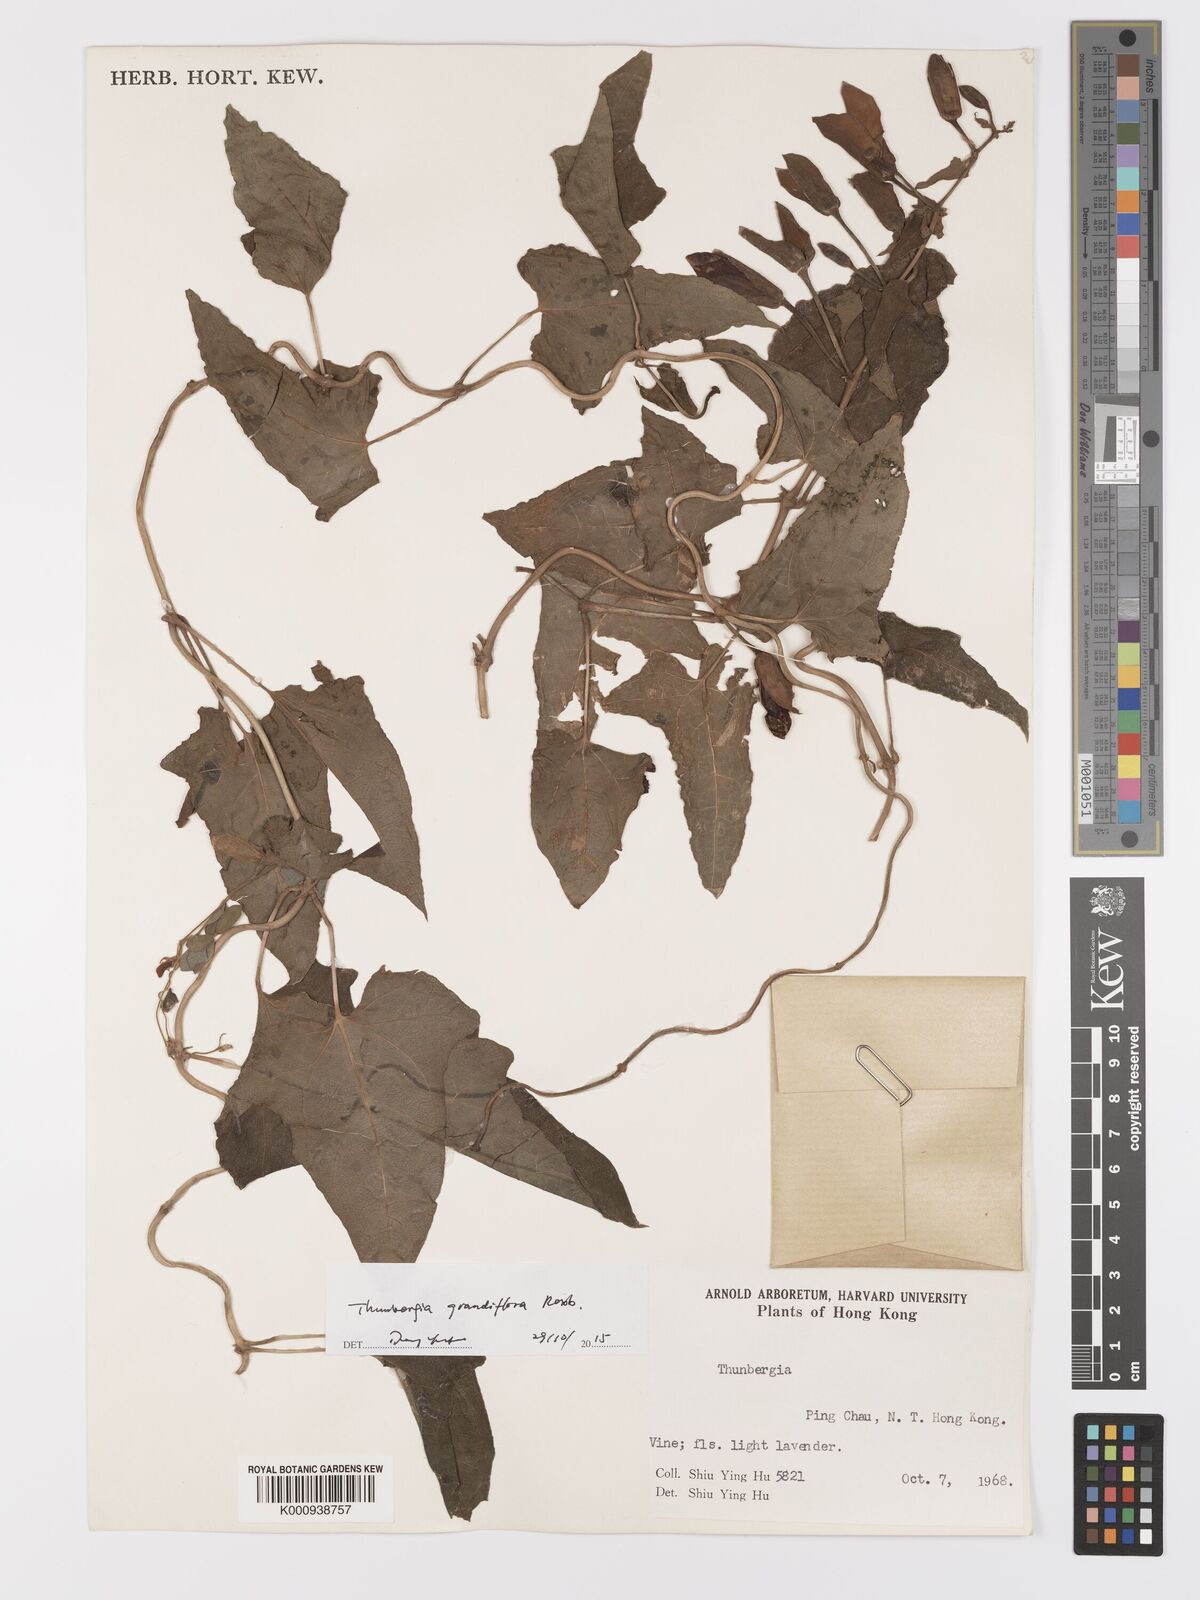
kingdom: Plantae
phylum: Tracheophyta
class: Magnoliopsida
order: Lamiales
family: Acanthaceae
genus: Thunbergia
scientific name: Thunbergia grandiflora
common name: Bengal trumpet
